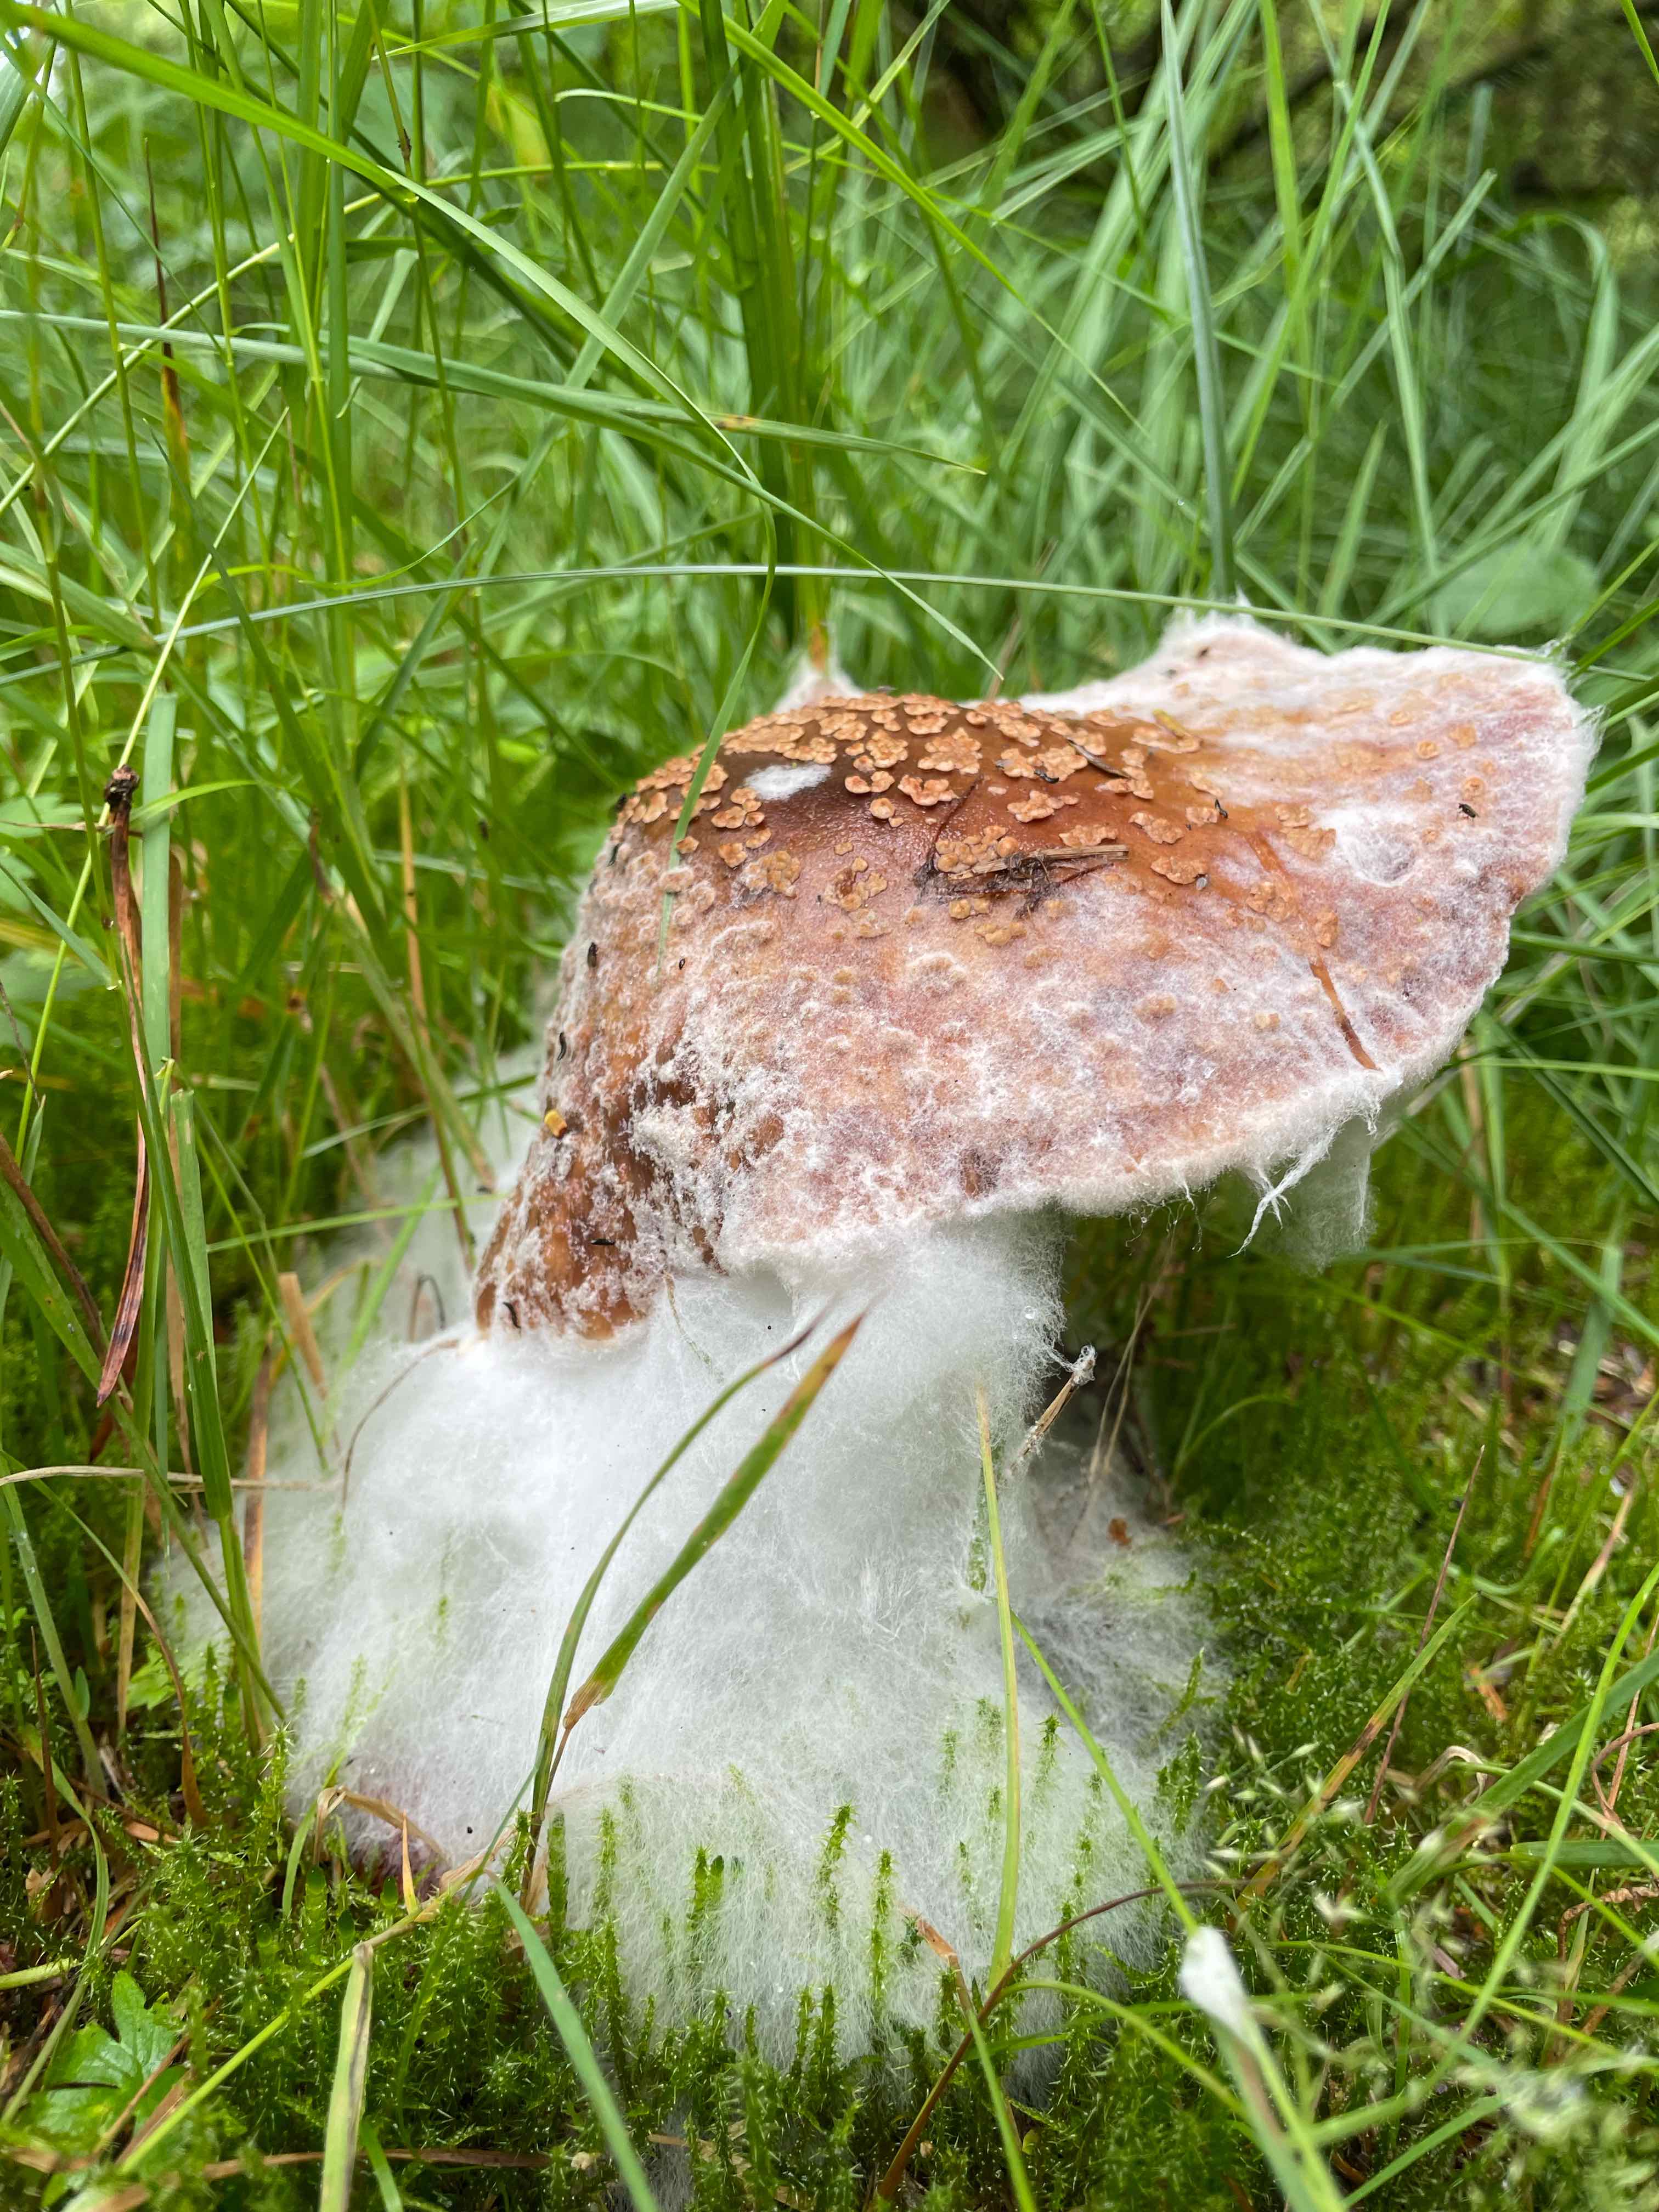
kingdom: Fungi
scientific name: Fungi
